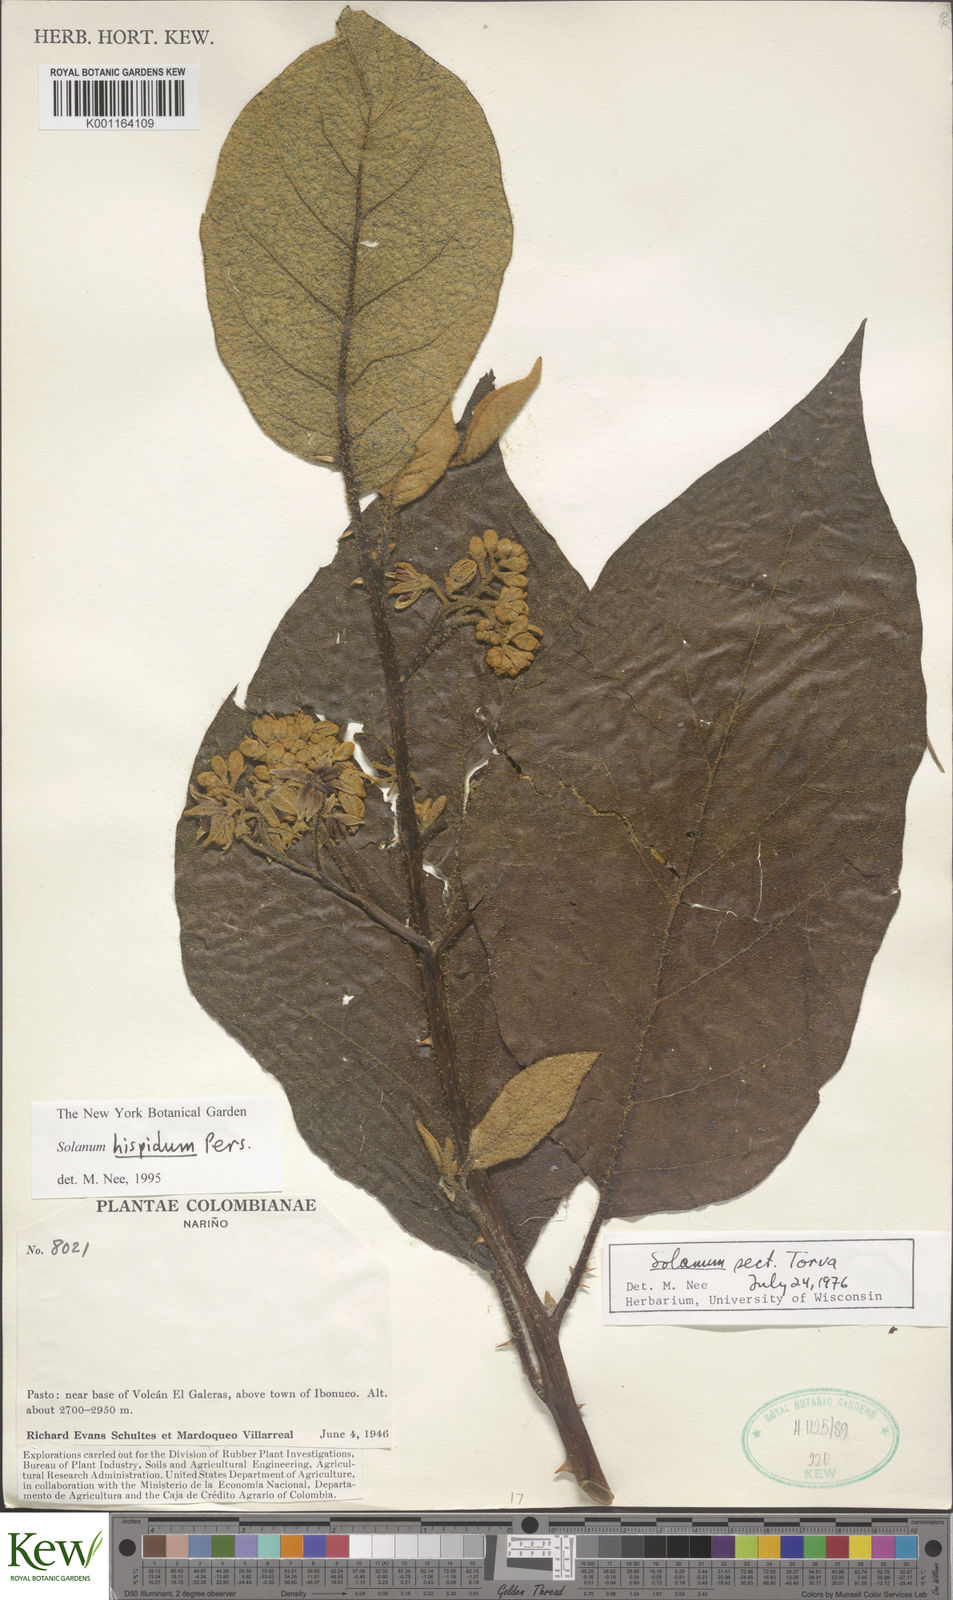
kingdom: Plantae
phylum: Tracheophyta
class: Magnoliopsida
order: Solanales
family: Solanaceae
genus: Solanum
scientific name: Solanum asperolanatum
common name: Devil's-fig
